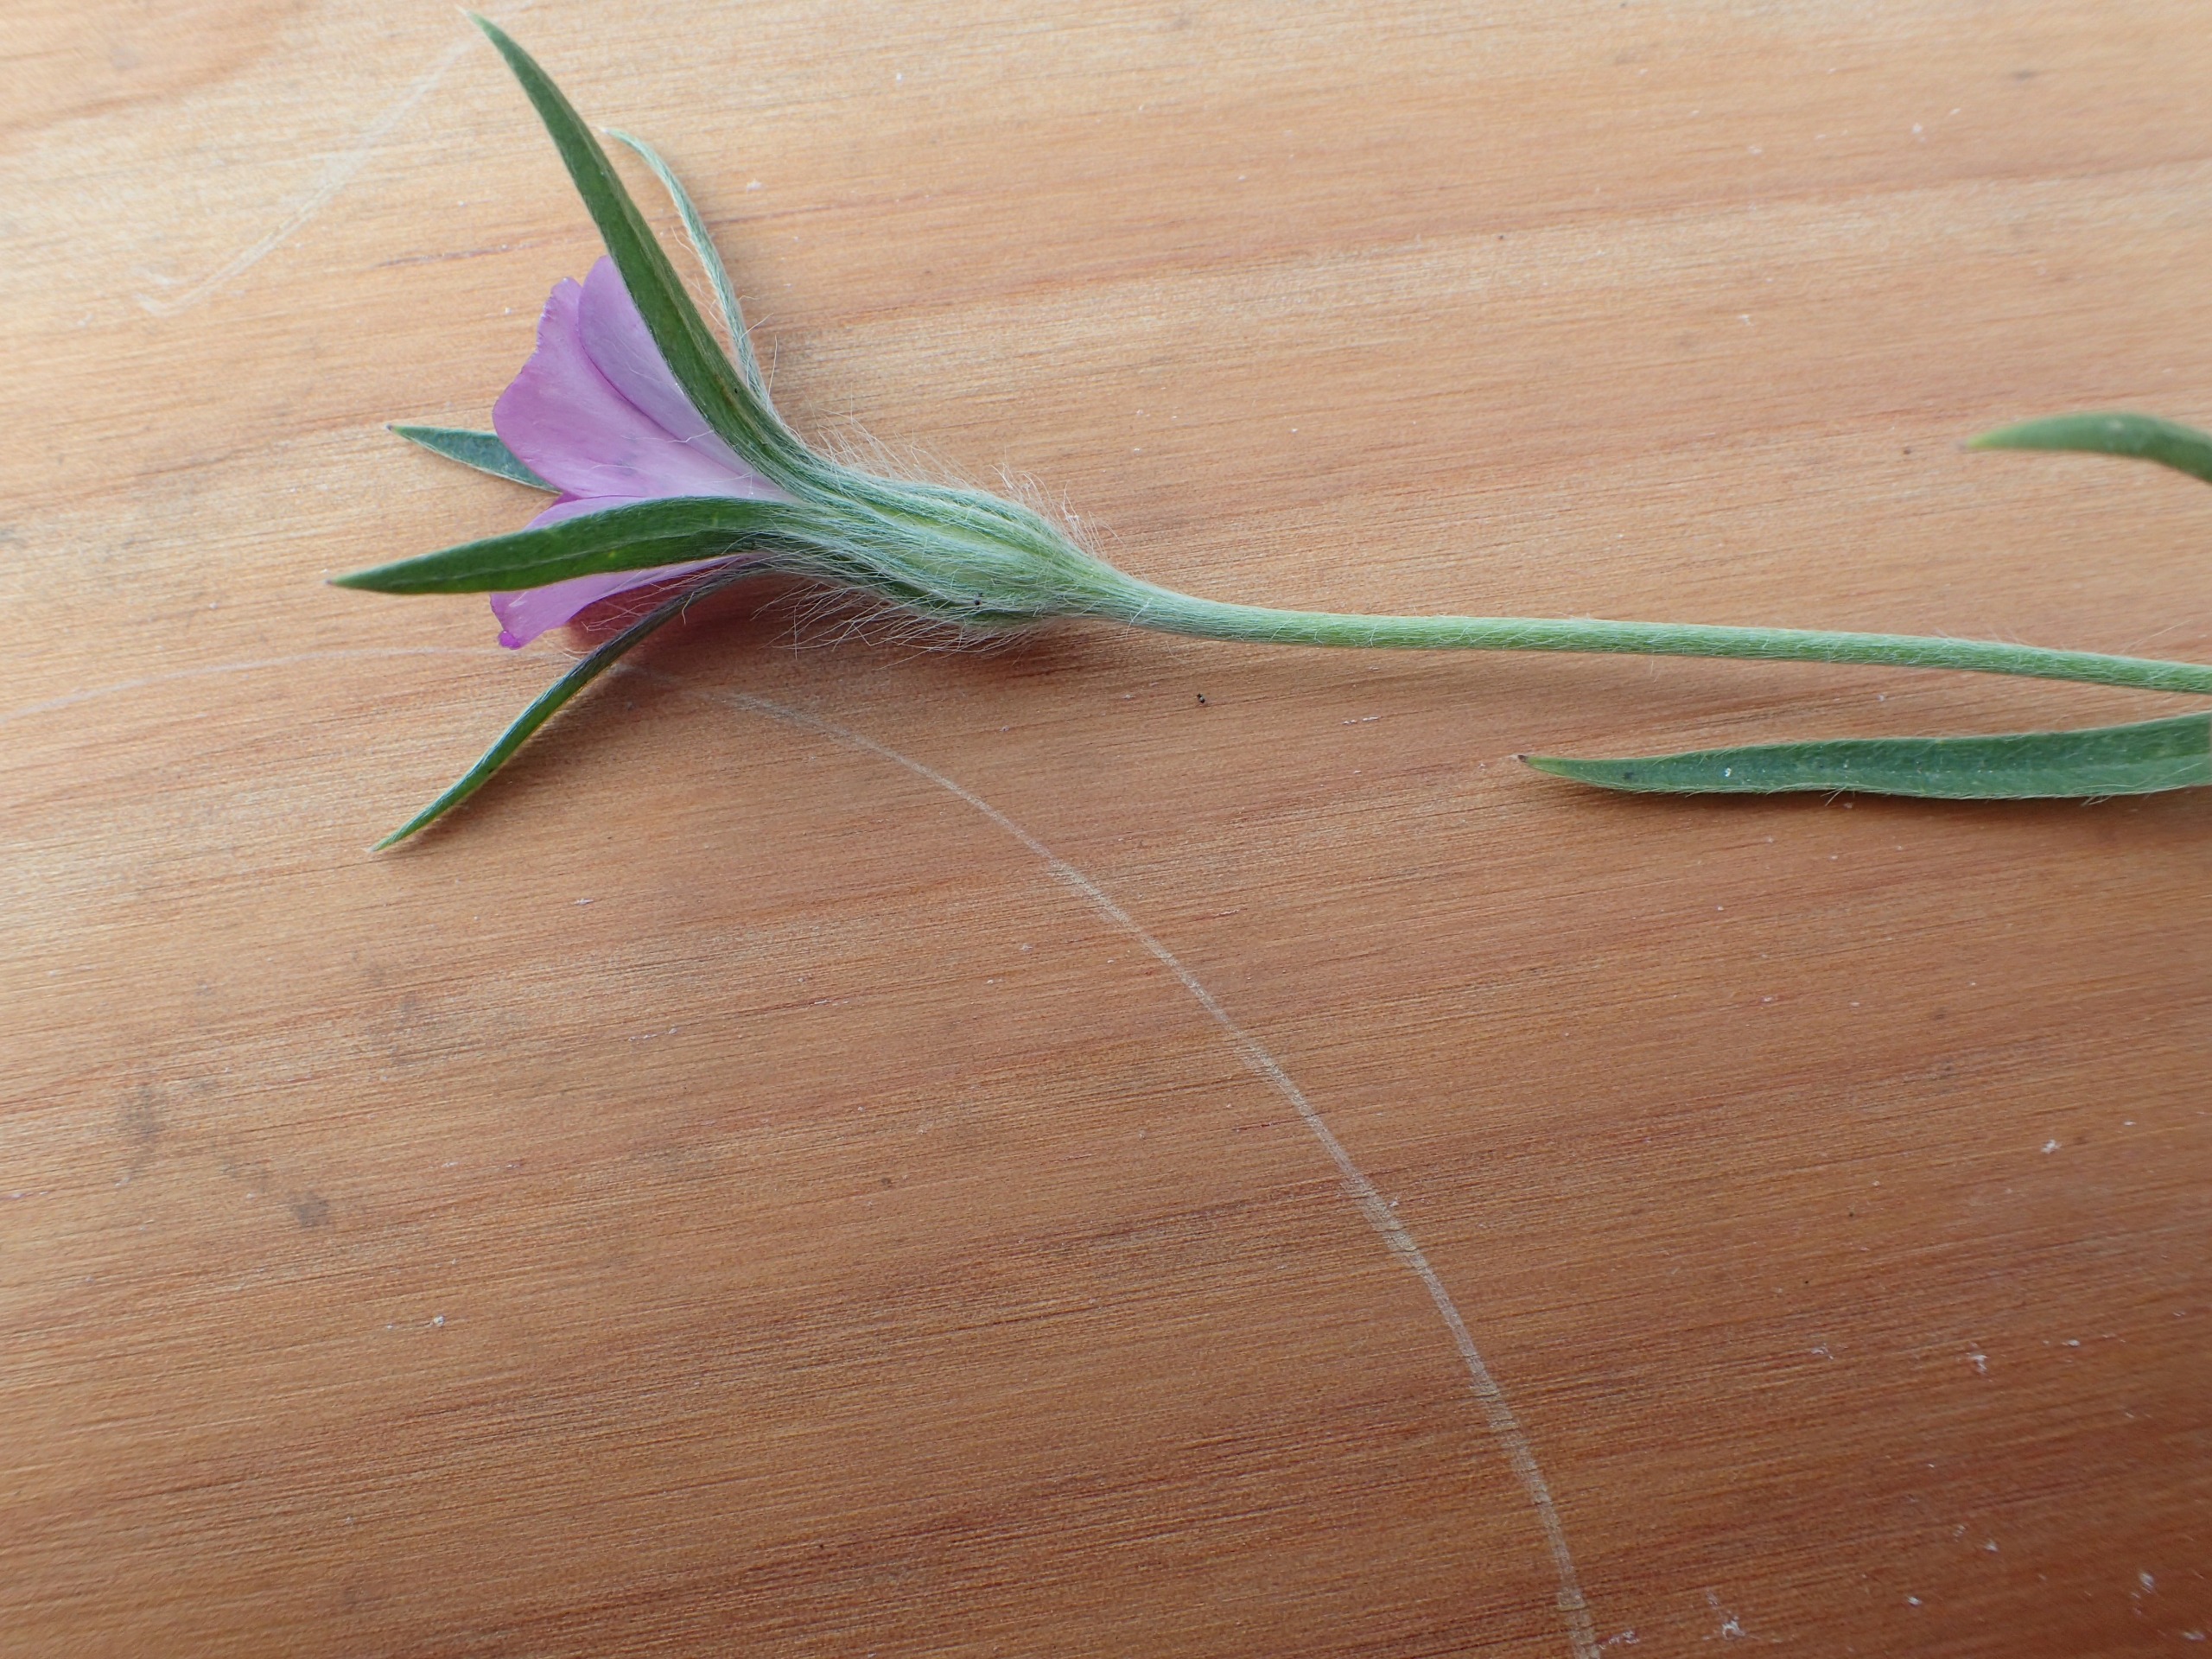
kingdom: Plantae
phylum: Tracheophyta
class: Magnoliopsida
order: Caryophyllales
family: Caryophyllaceae
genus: Agrostemma
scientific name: Agrostemma githago
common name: Klinte
